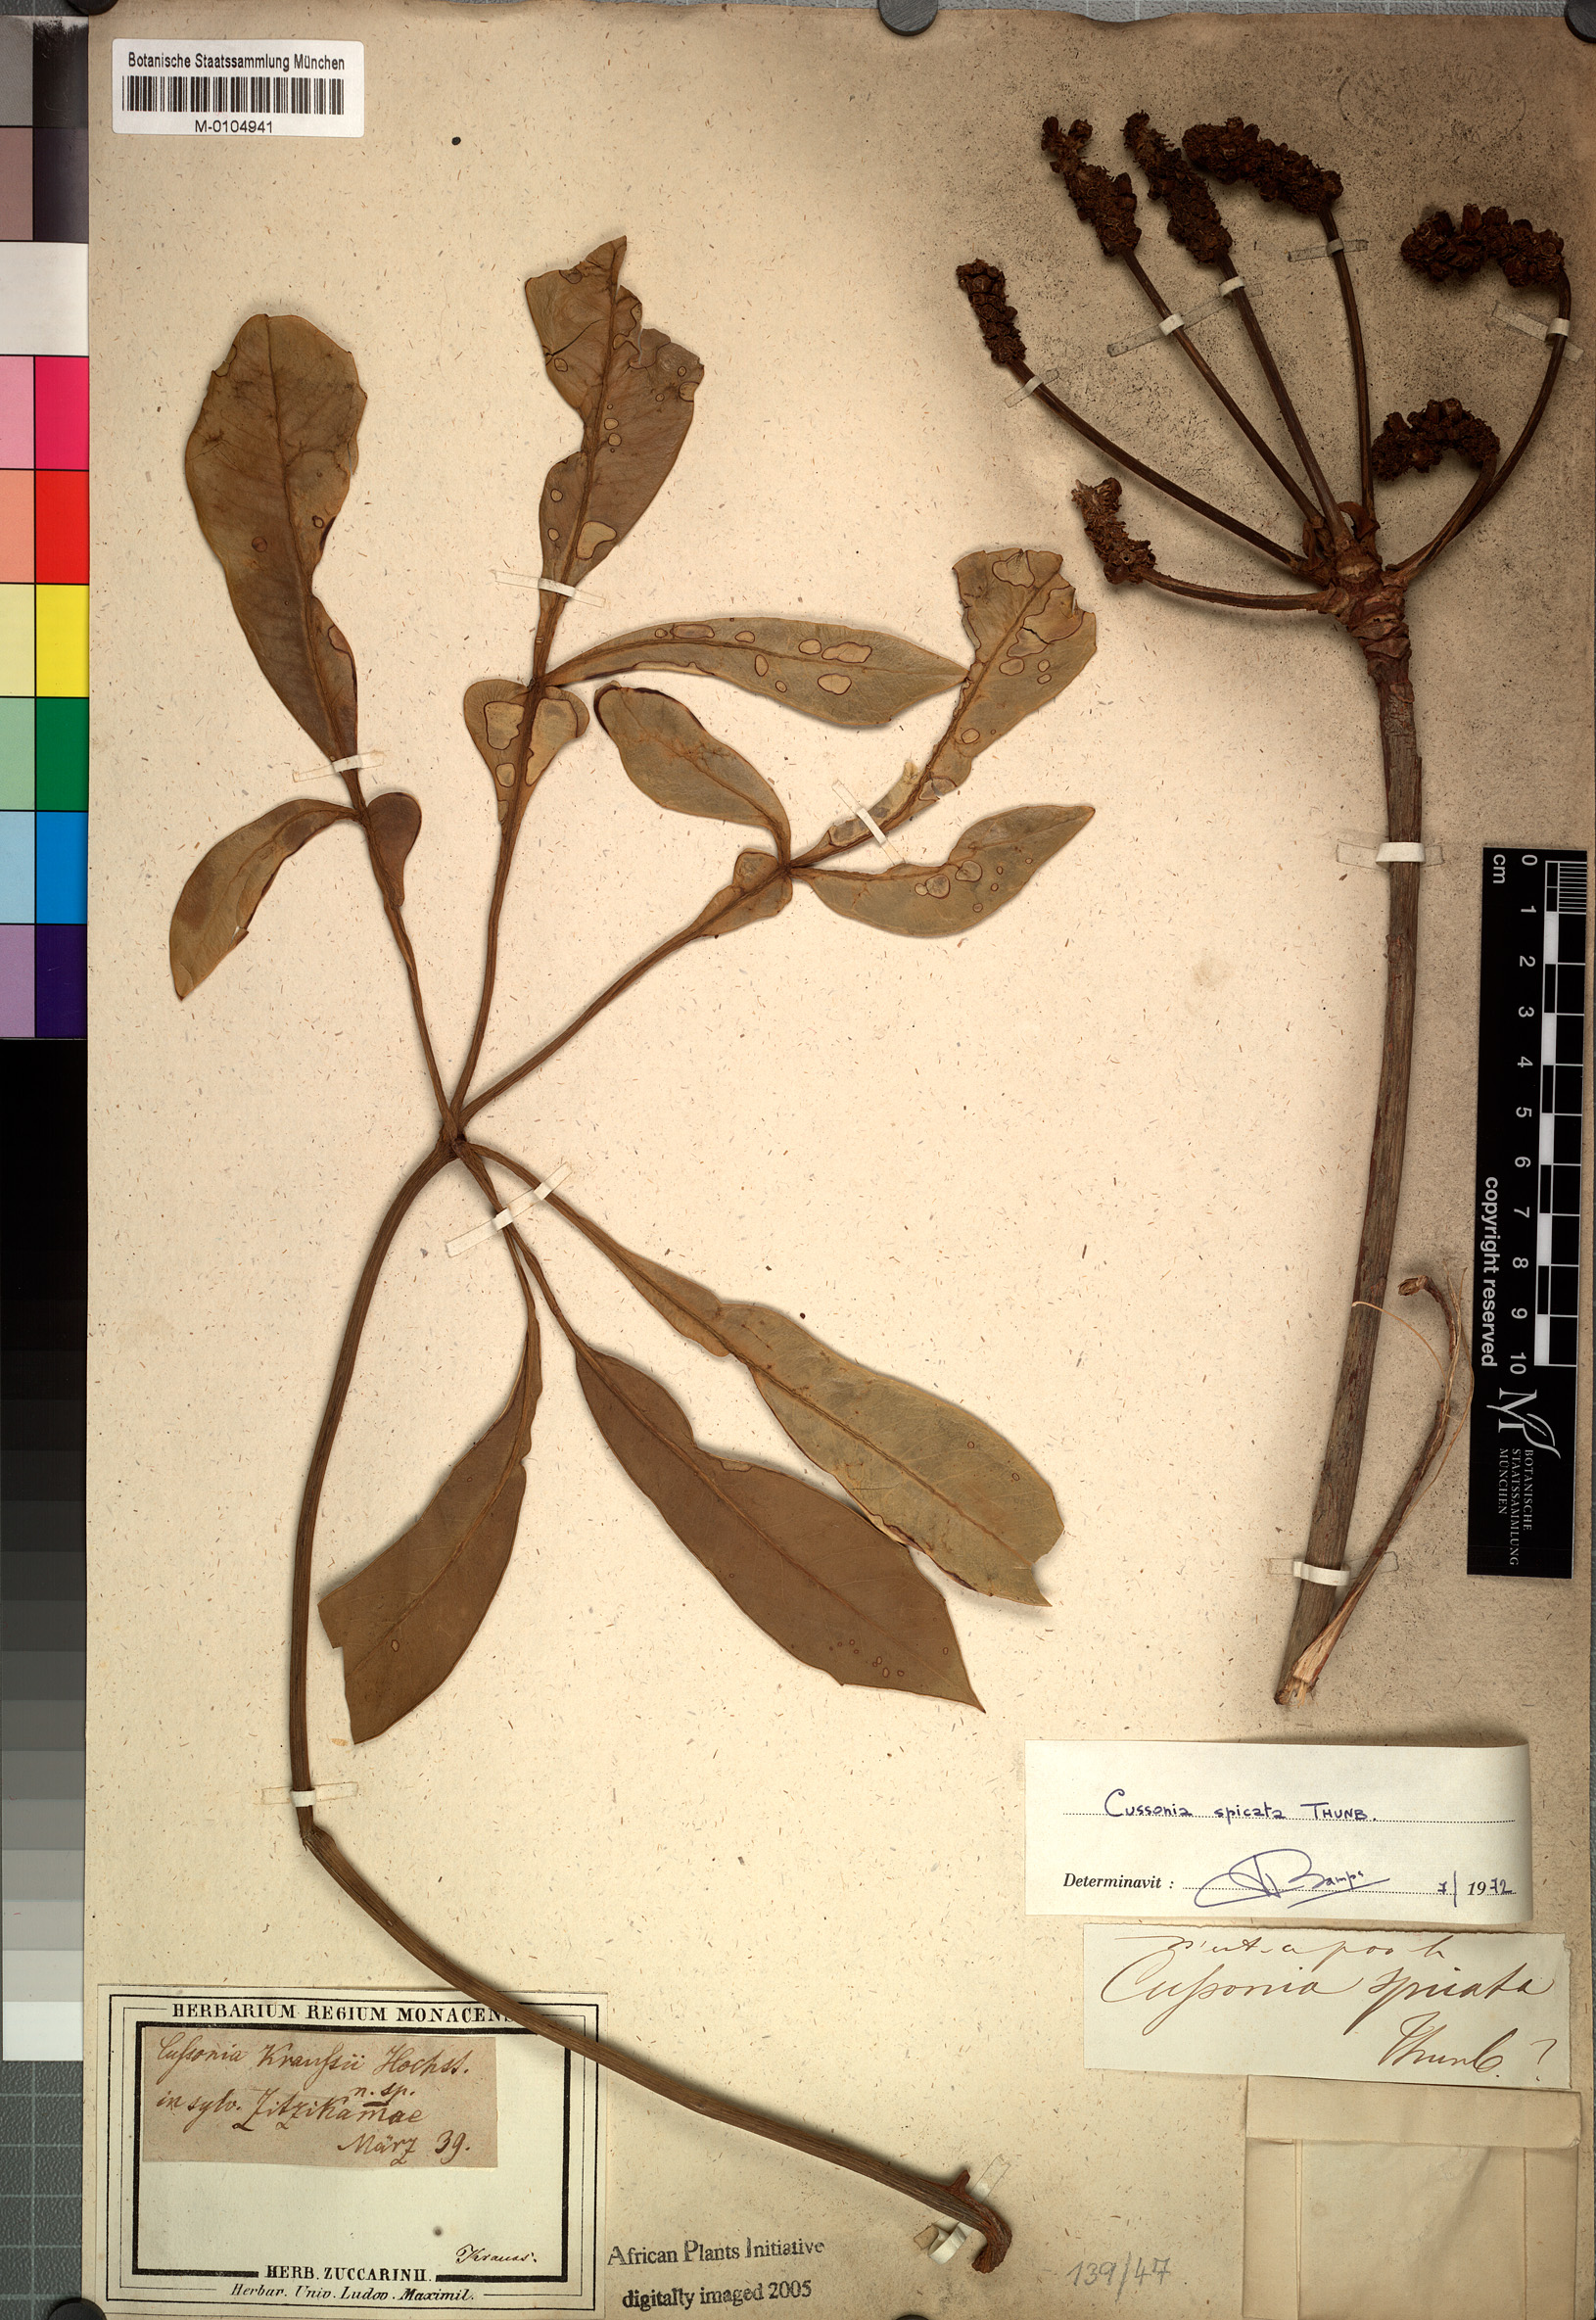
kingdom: Plantae
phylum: Tracheophyta
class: Magnoliopsida
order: Apiales
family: Araliaceae
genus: Cussonia
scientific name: Cussonia spicata
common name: Common cabbagetree
